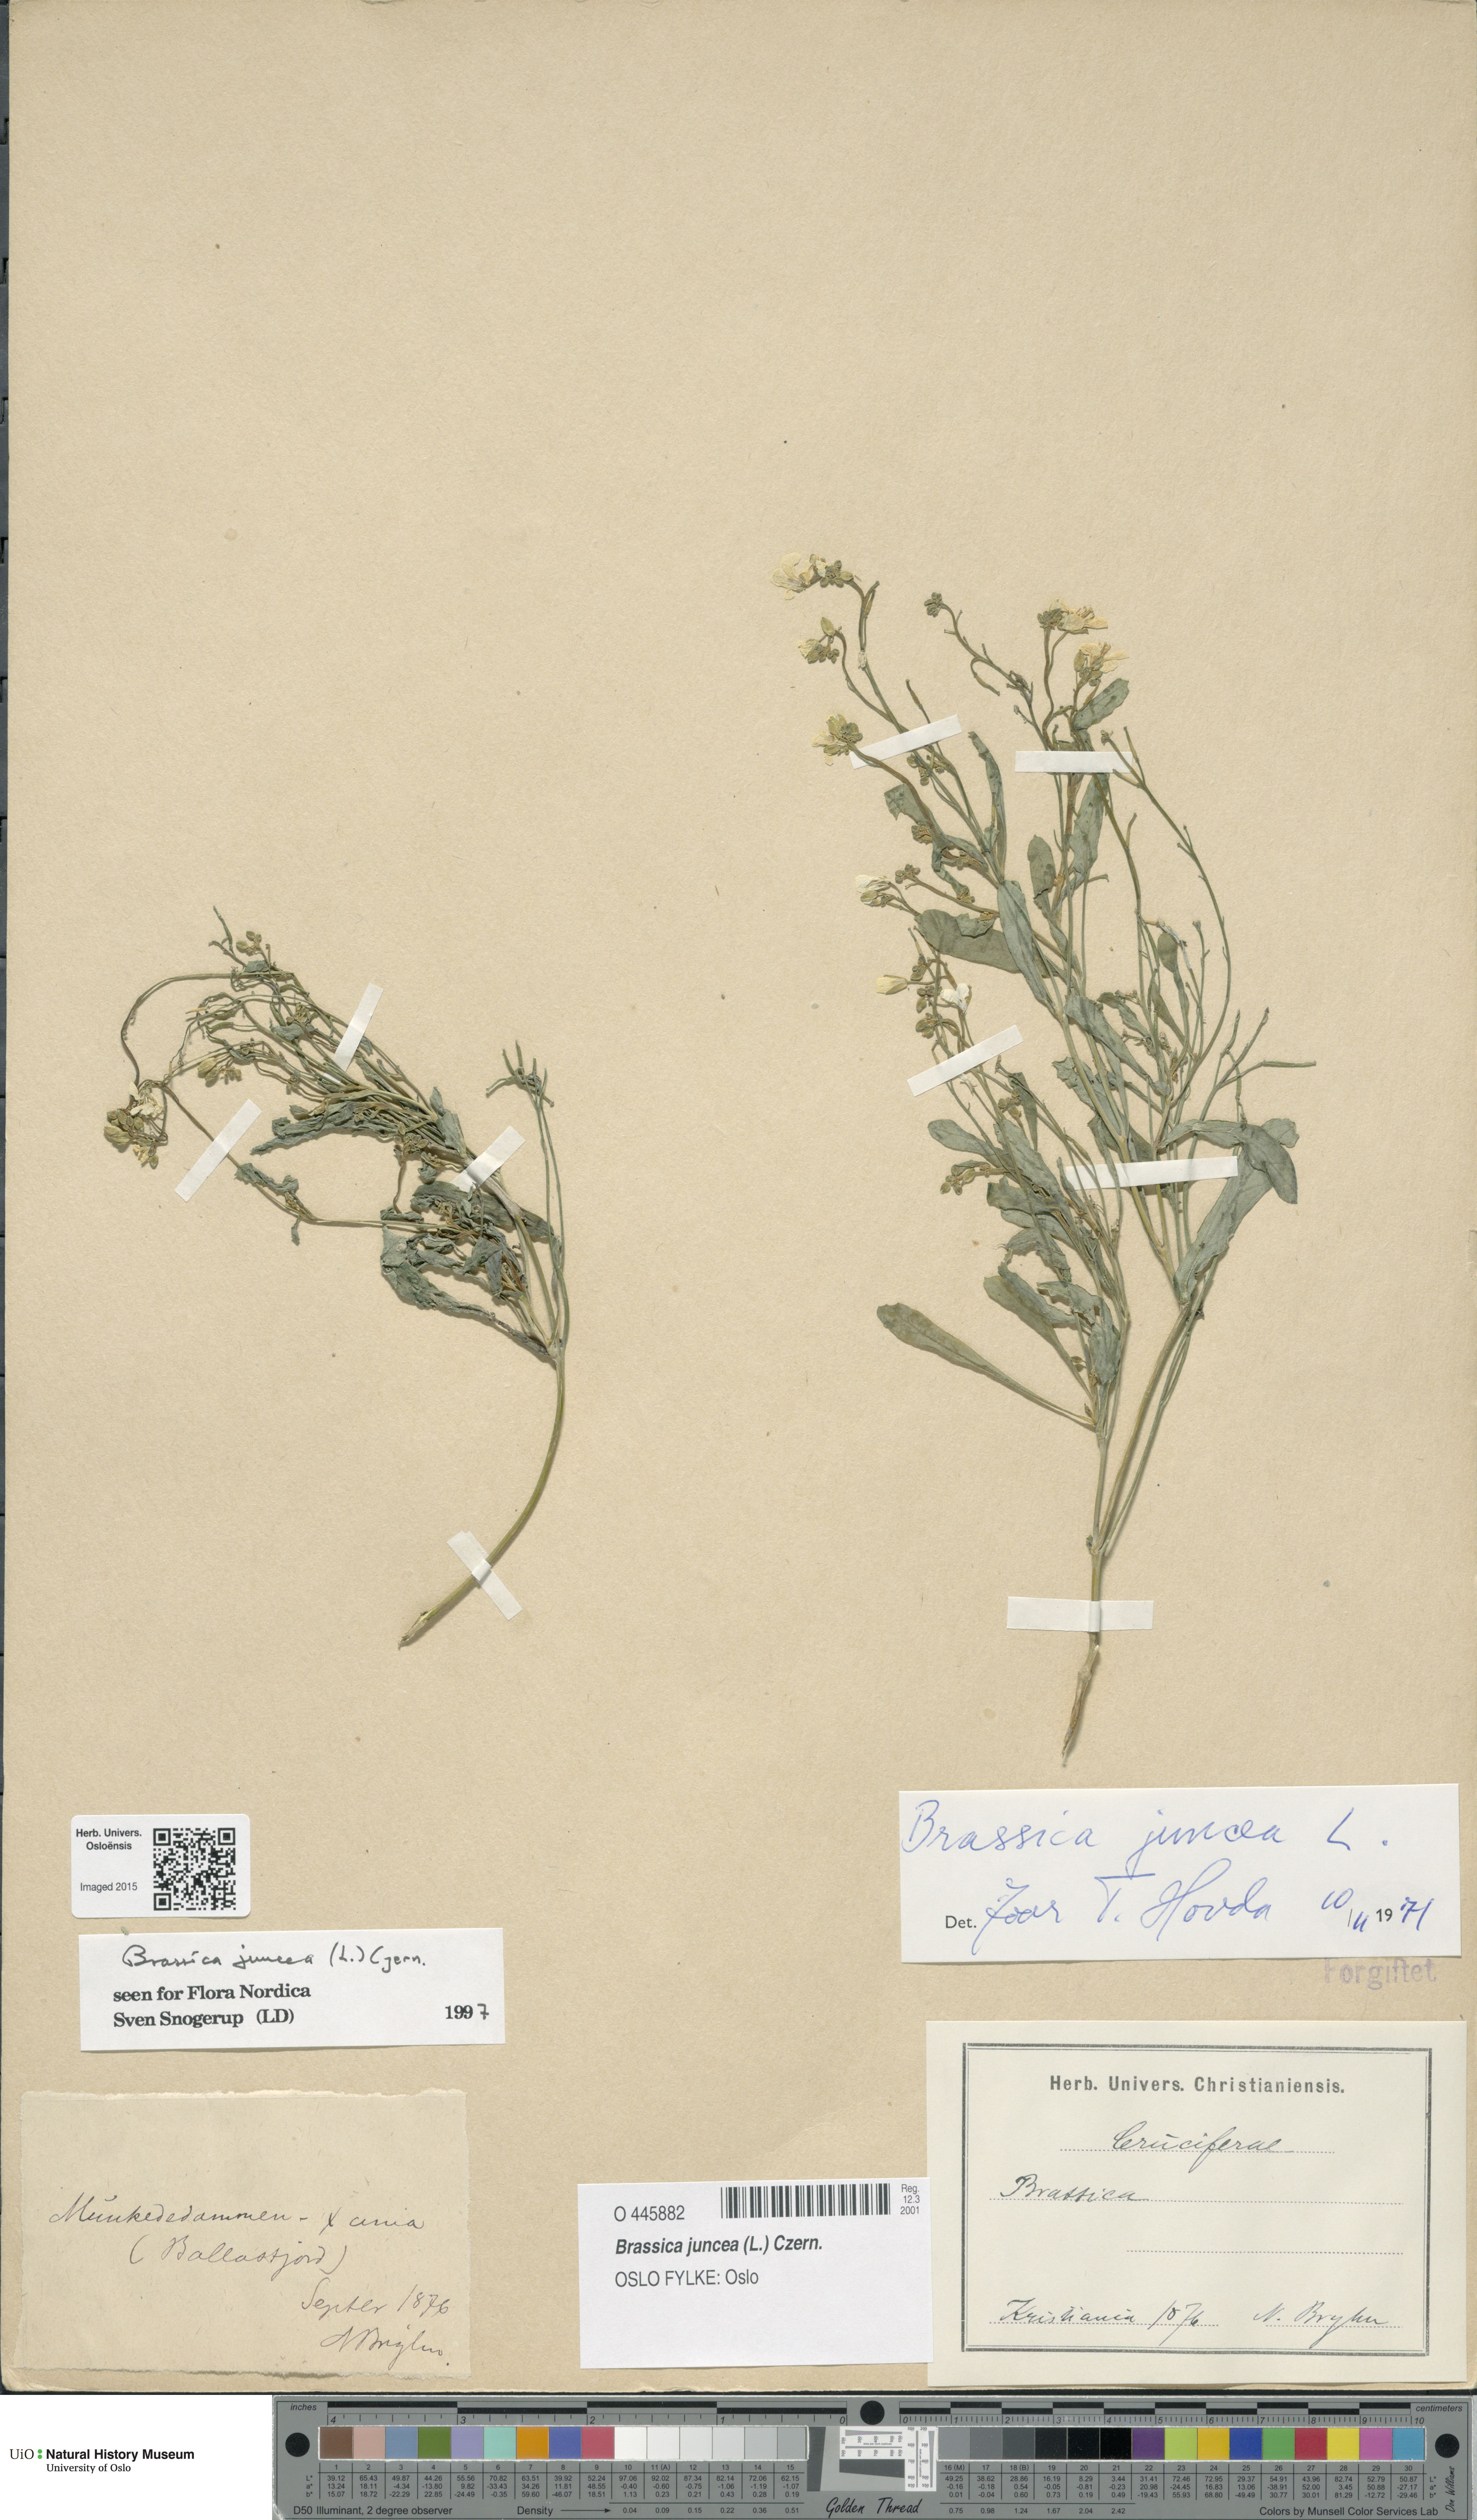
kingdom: Plantae
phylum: Tracheophyta
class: Magnoliopsida
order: Brassicales
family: Brassicaceae
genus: Brassica
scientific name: Brassica juncea
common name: Brown mustard
